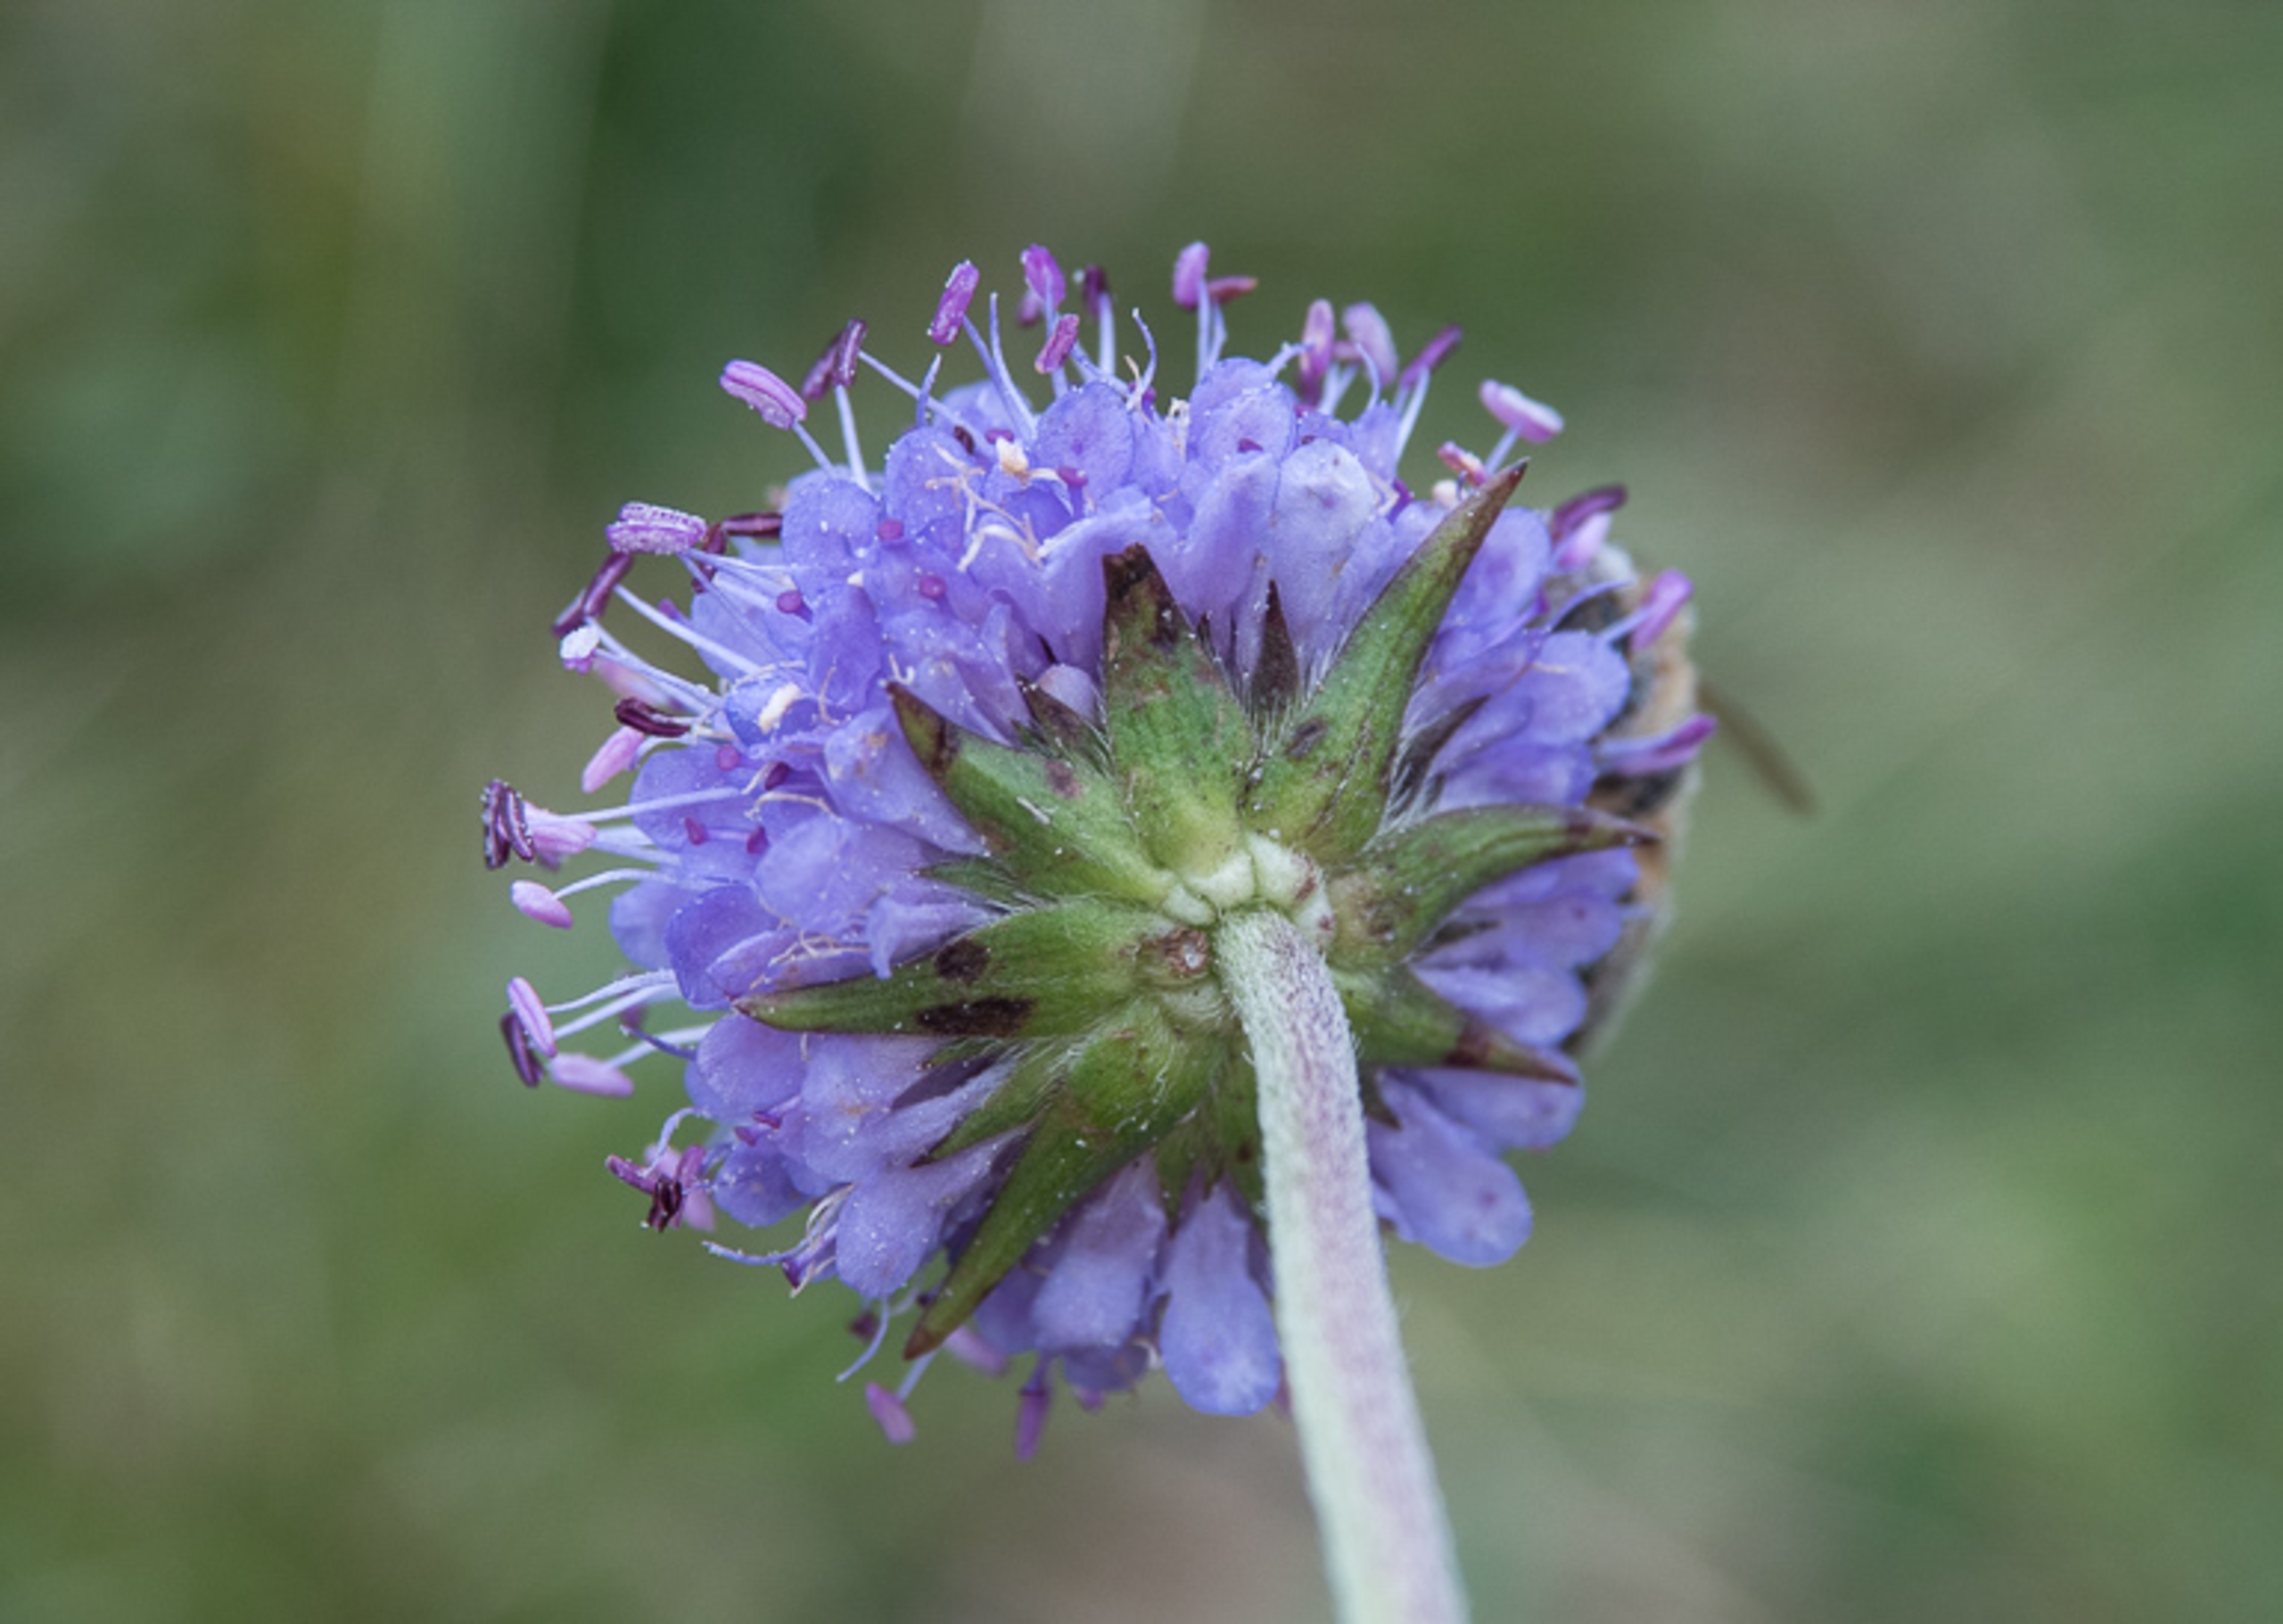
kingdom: Plantae
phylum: Tracheophyta
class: Magnoliopsida
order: Dipsacales
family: Caprifoliaceae
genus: Succisa
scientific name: Succisa pratensis
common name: Djævelsbid
